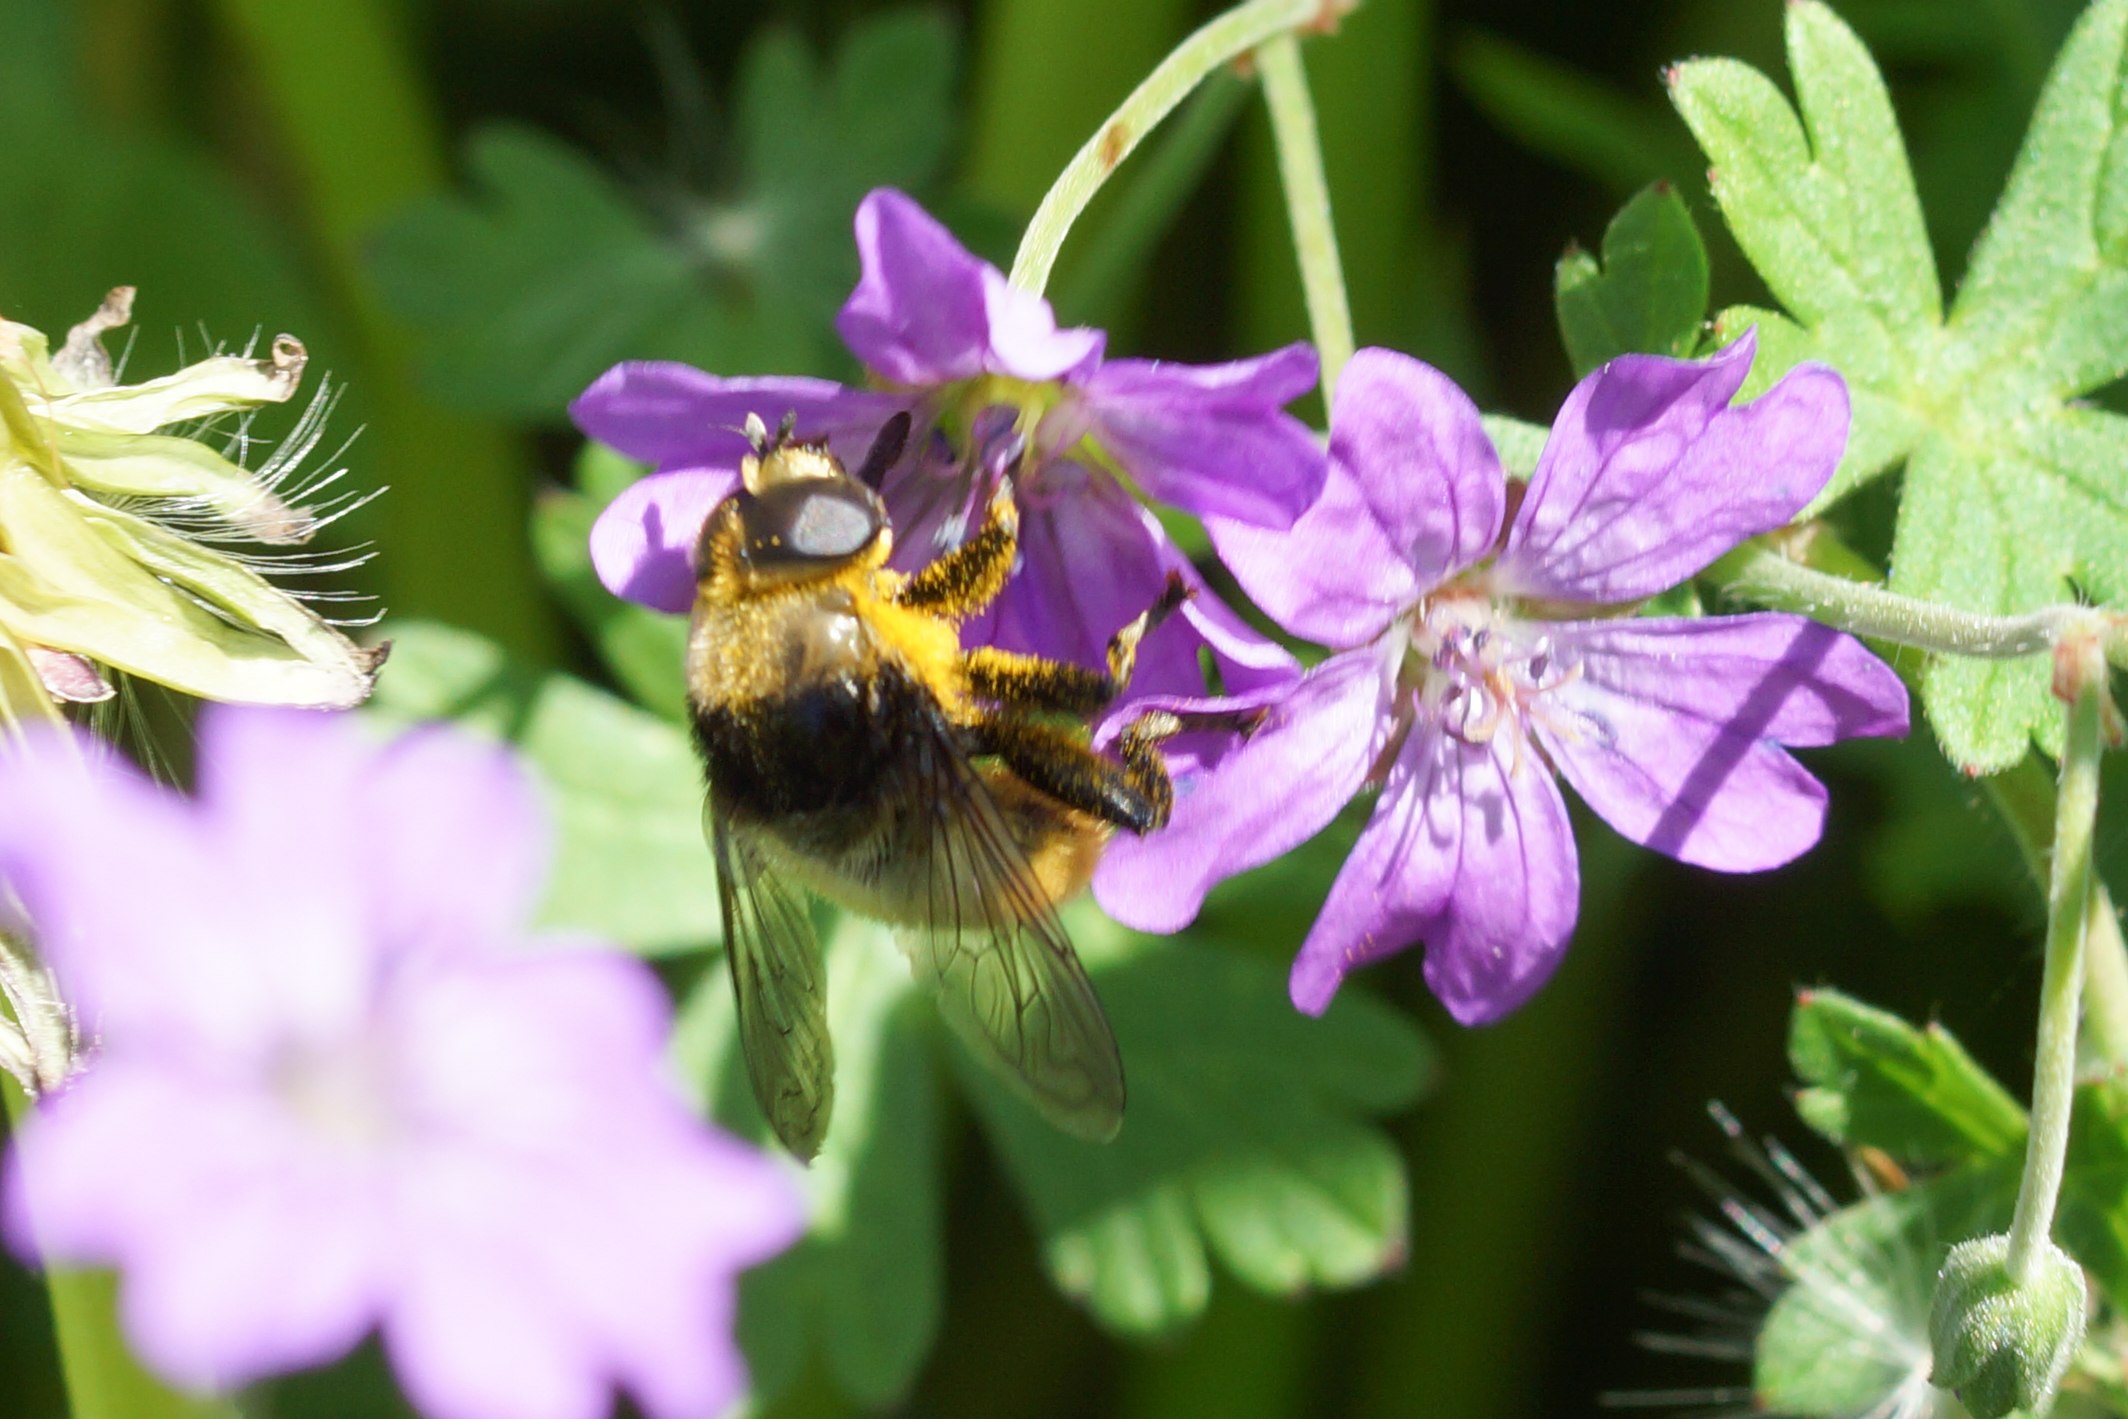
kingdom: Animalia
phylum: Arthropoda
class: Insecta
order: Diptera
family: Syrphidae
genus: Merodon
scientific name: Merodon equestris
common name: Stor narcisflue
